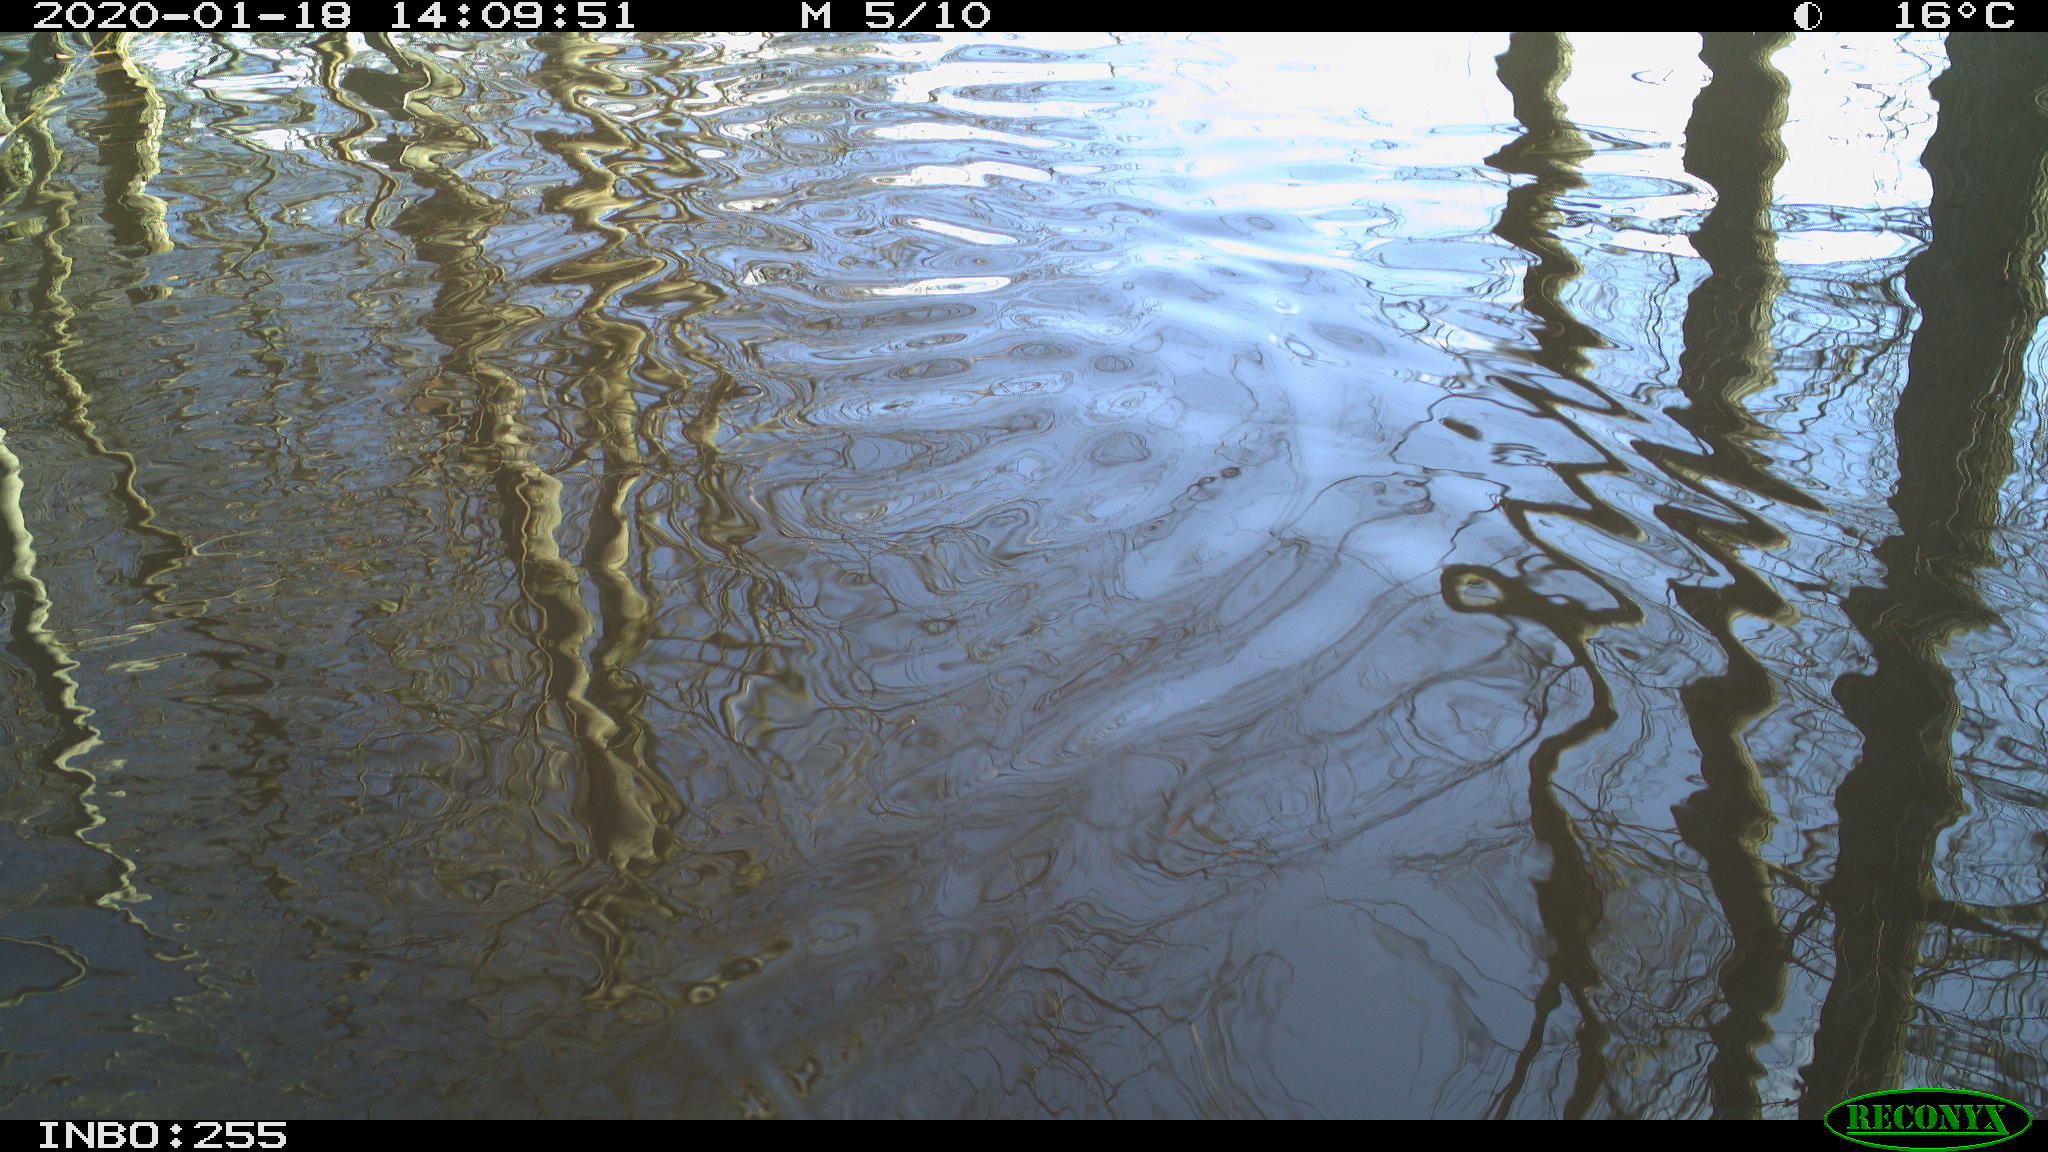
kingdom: Animalia
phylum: Chordata
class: Aves
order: Gruiformes
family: Rallidae
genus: Gallinula
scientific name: Gallinula chloropus
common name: Common moorhen
